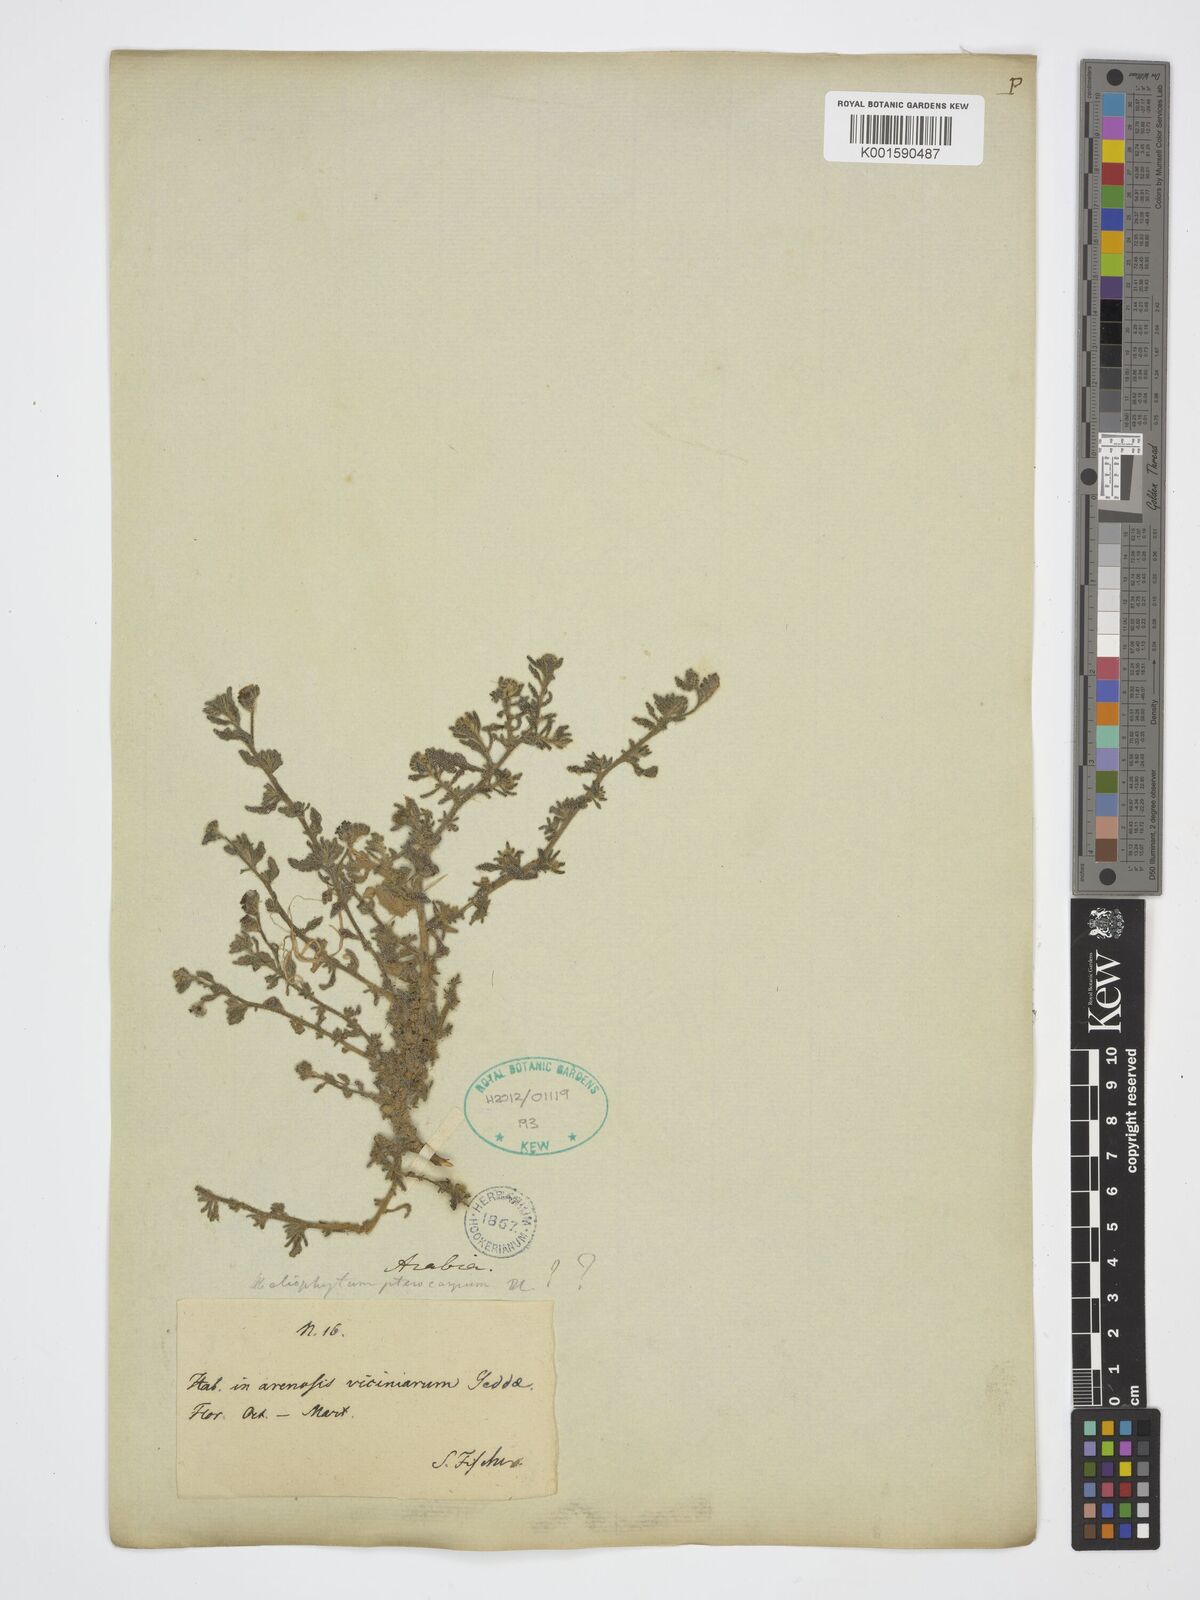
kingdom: Plantae
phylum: Tracheophyta
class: Magnoliopsida
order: Boraginales
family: Heliotropiaceae
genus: Heliotropium
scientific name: Heliotropium pterocarpum
